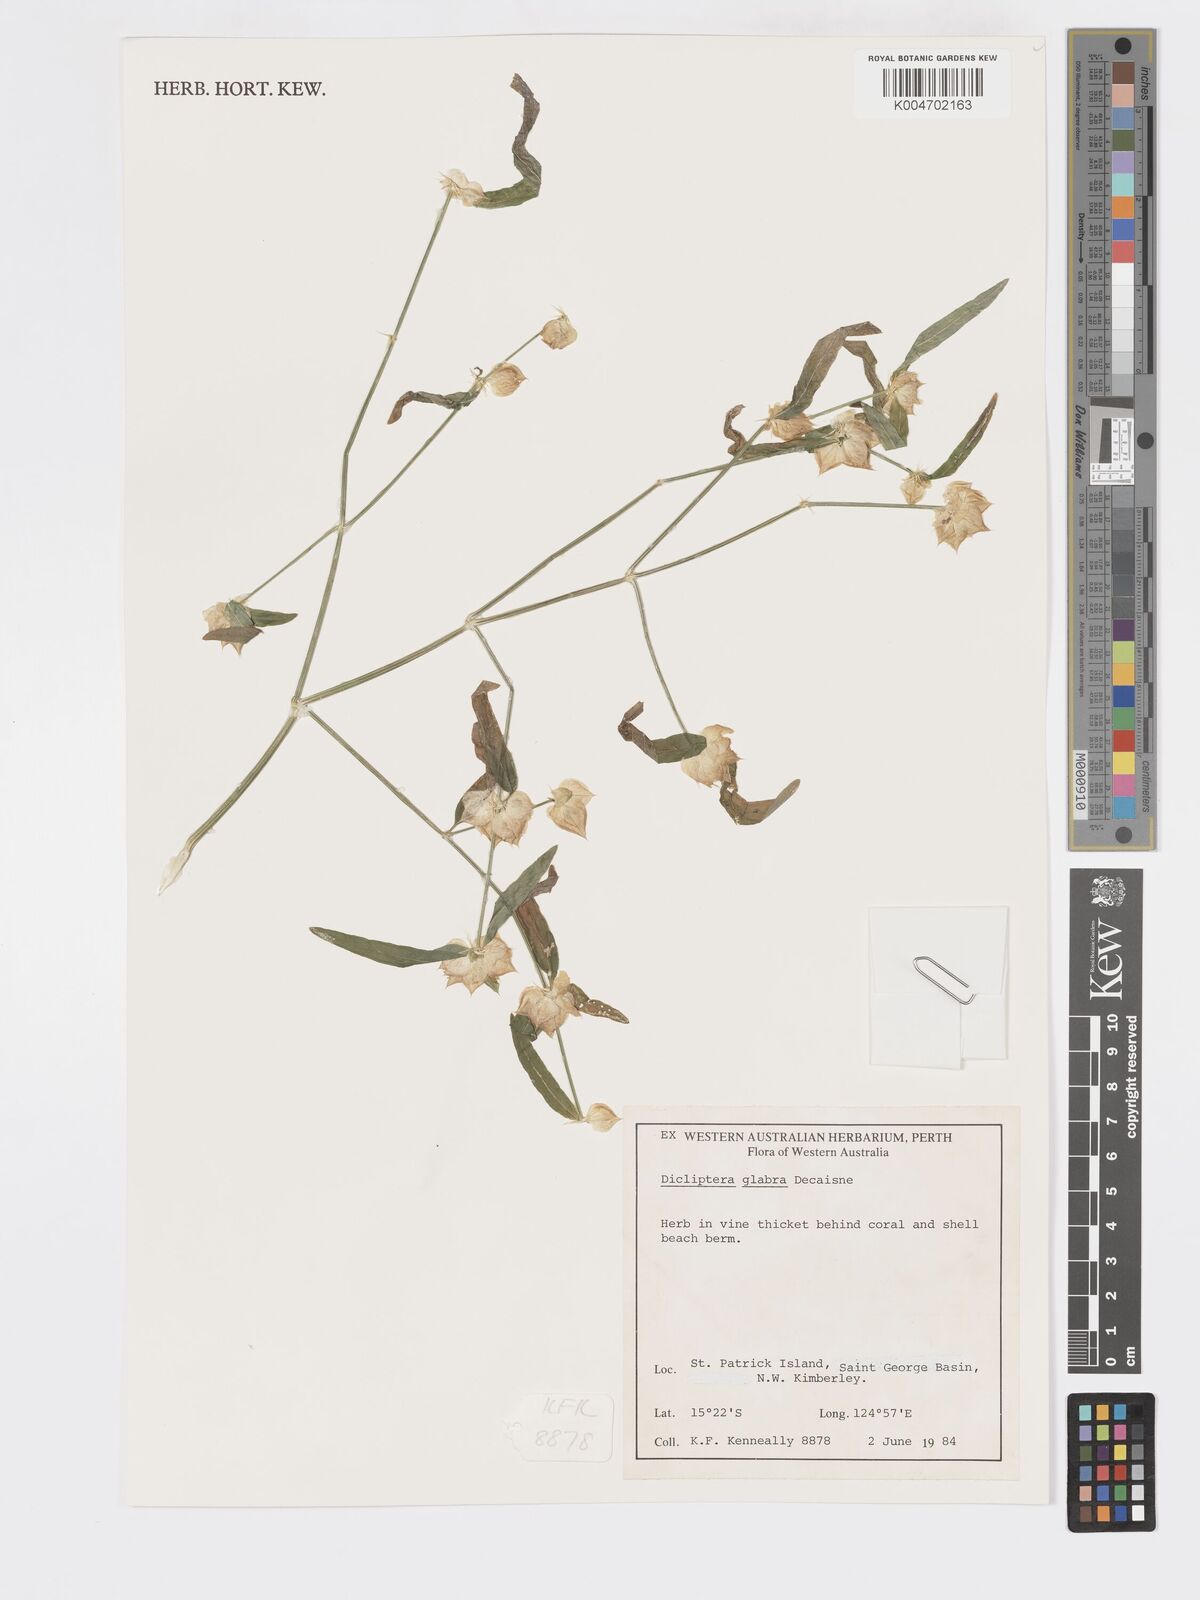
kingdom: Plantae
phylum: Tracheophyta
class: Magnoliopsida
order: Lamiales
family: Acanthaceae
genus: Dicliptera
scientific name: Dicliptera armata
